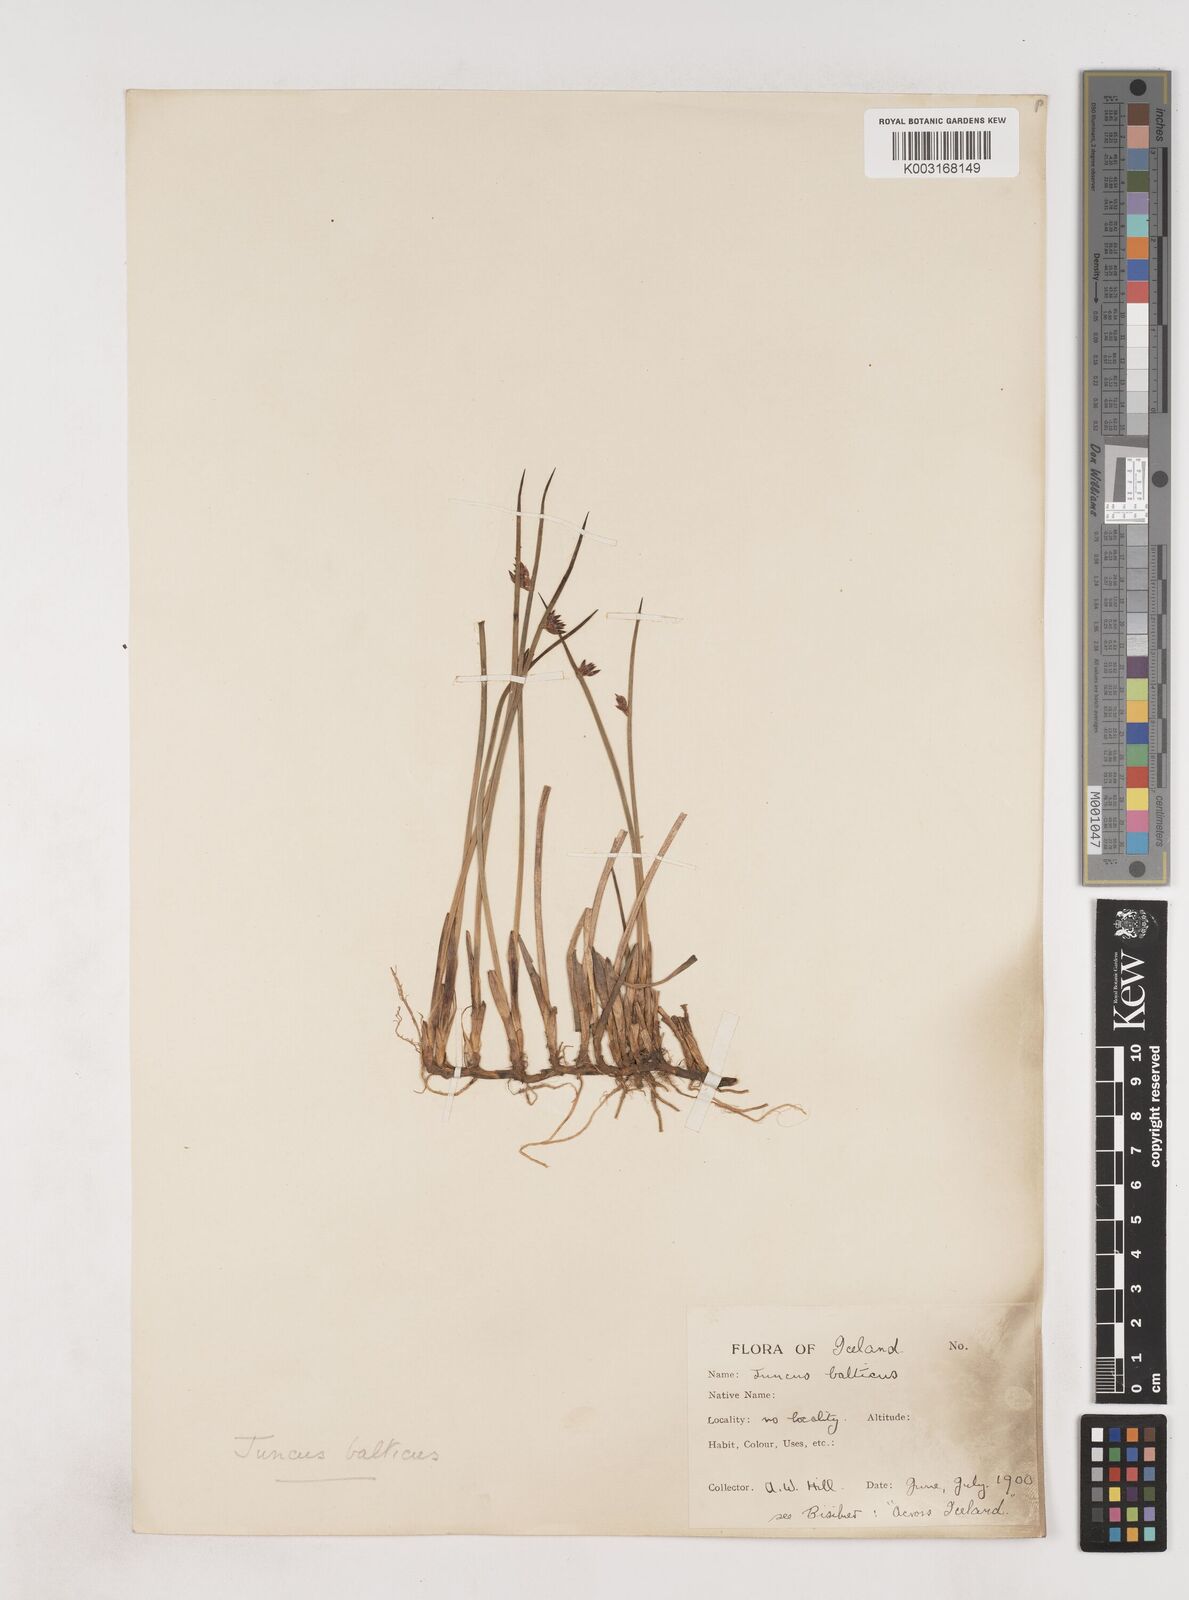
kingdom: Plantae
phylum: Tracheophyta
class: Liliopsida
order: Poales
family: Juncaceae
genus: Juncus
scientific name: Juncus balticus
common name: Baltic rush
